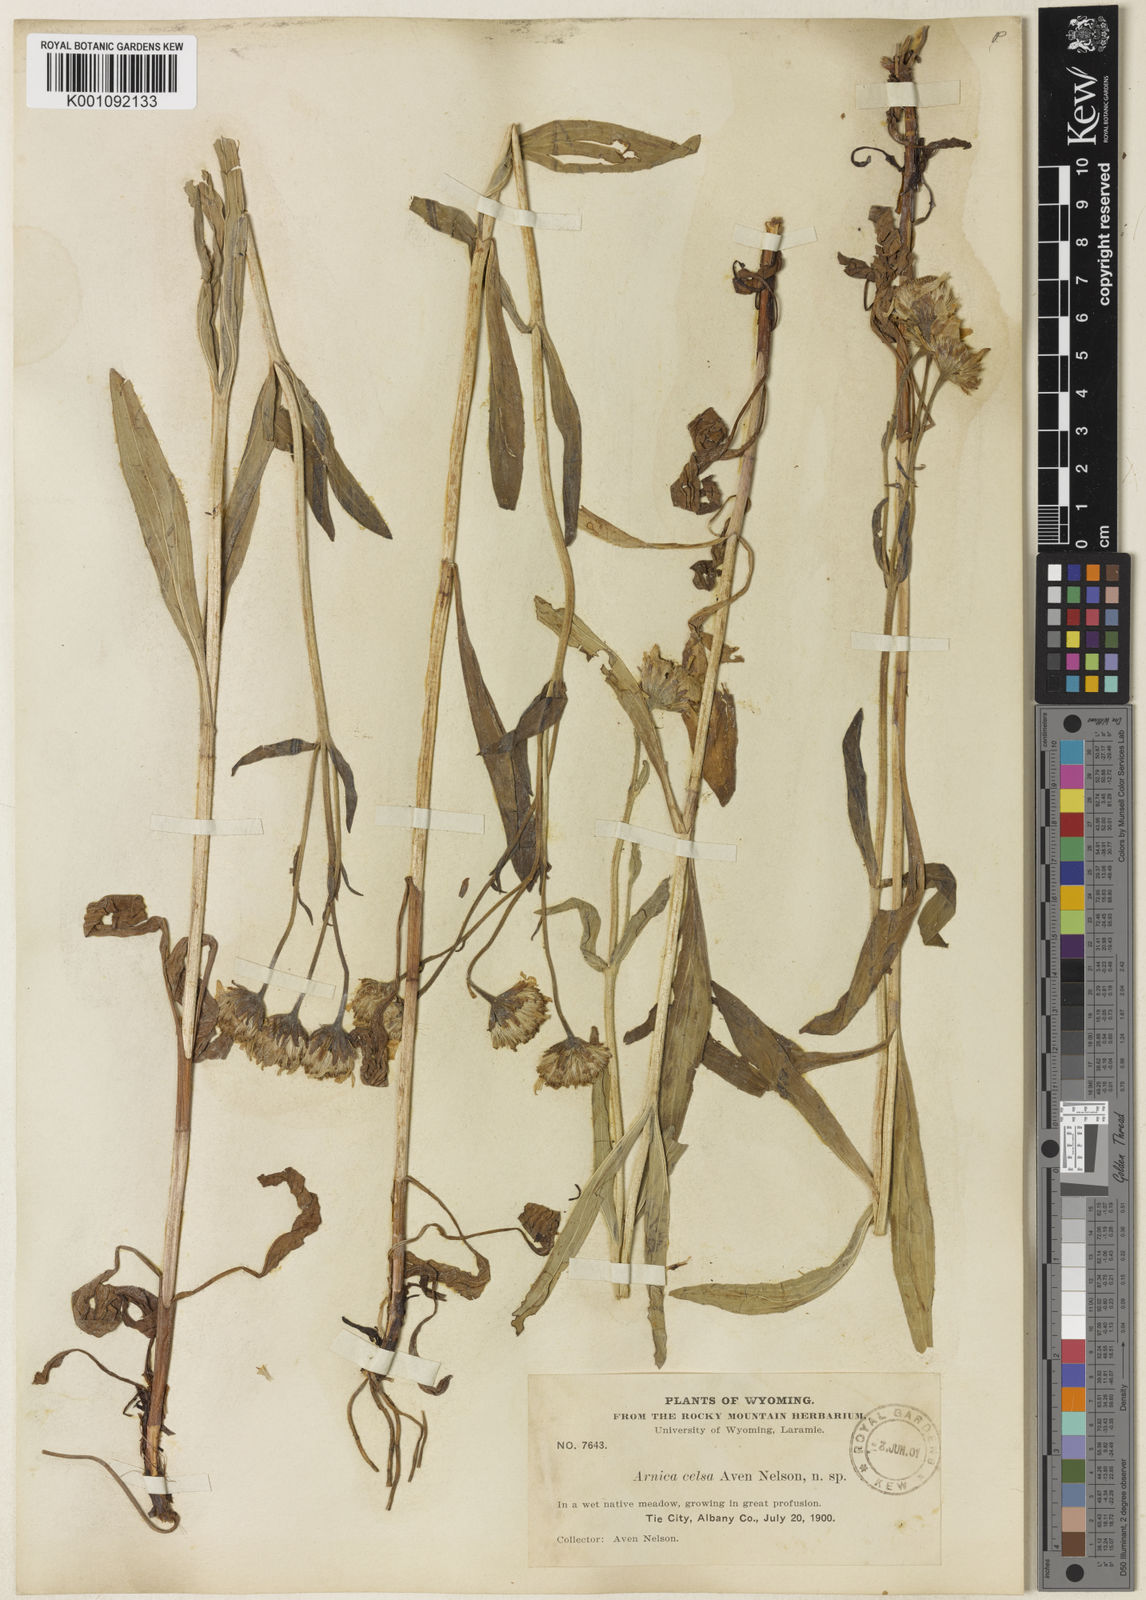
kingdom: Plantae
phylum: Tracheophyta
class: Magnoliopsida
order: Asterales
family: Asteraceae
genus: Arnica
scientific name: Arnica chamissonis
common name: Leafy arnica
